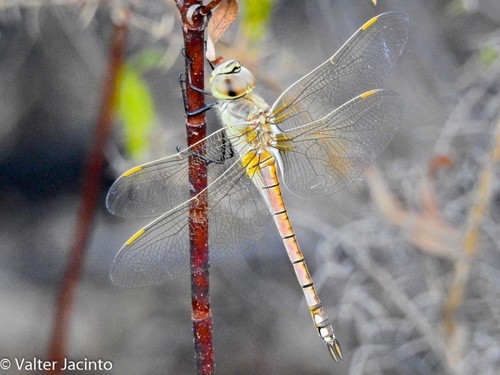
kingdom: Animalia
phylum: Arthropoda
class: Insecta
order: Odonata
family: Aeshnidae
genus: Anax
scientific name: Anax ephippiger
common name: Vagrant emperor
